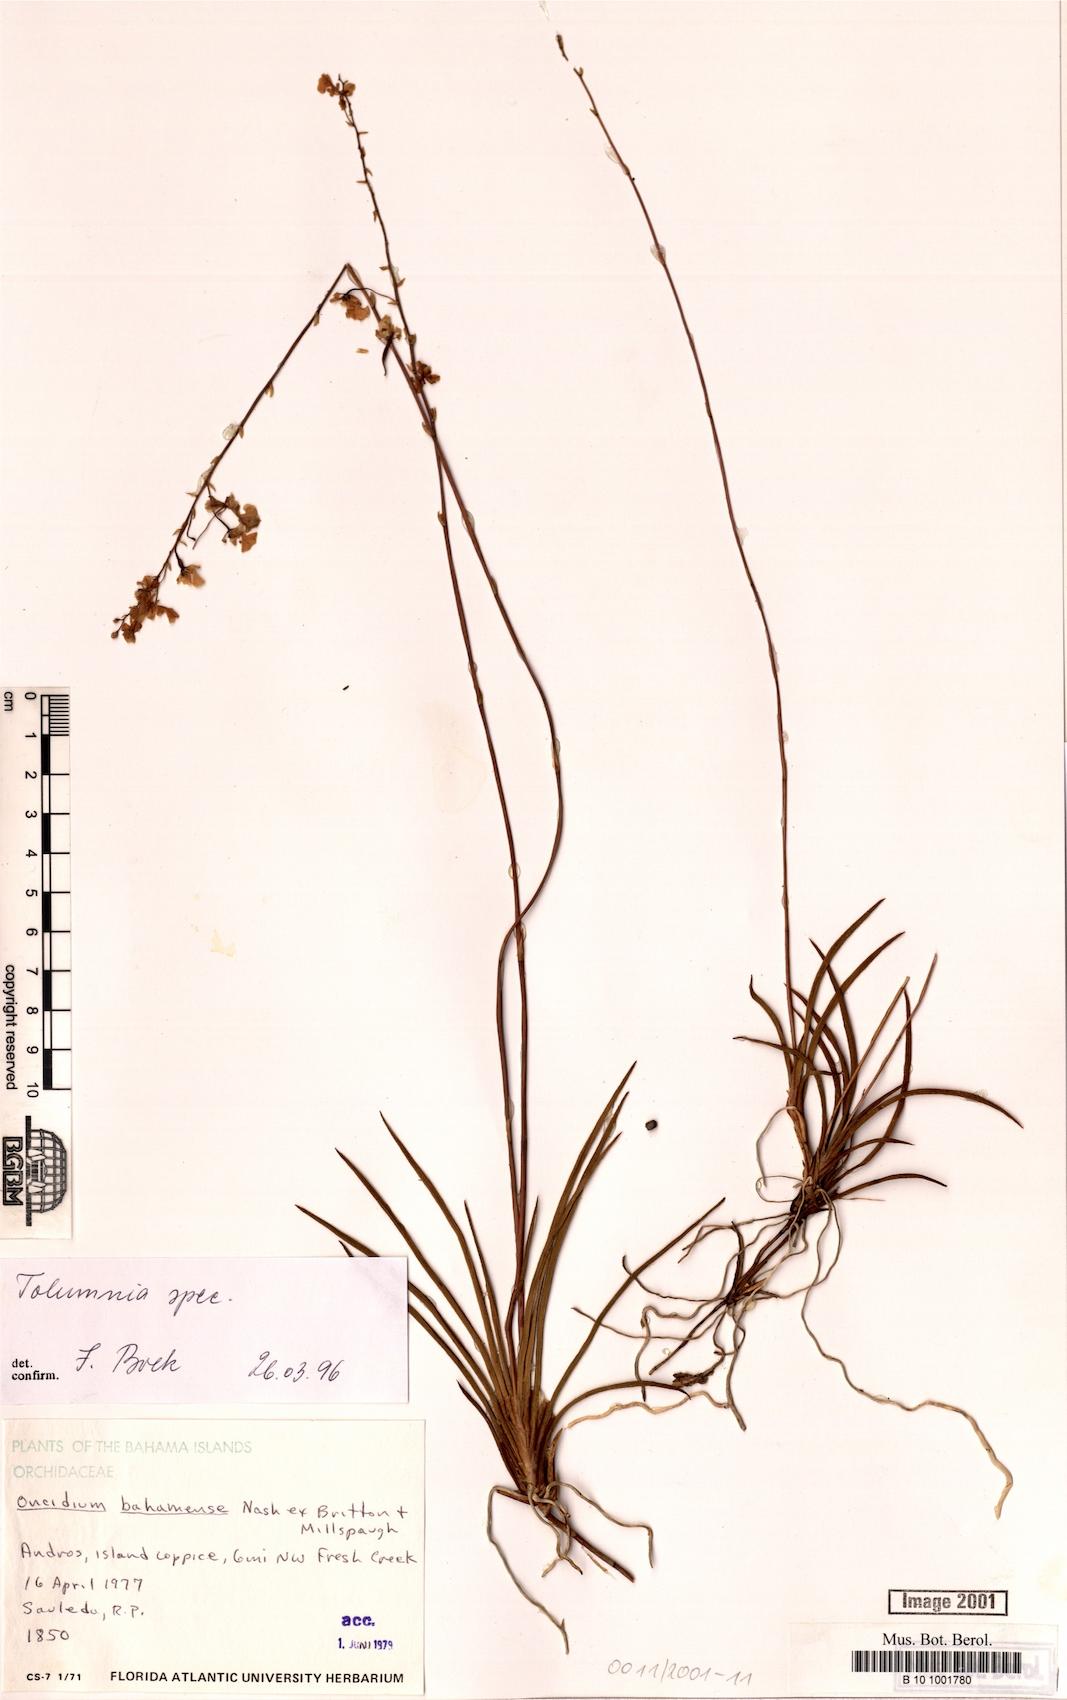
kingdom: Plantae
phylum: Tracheophyta
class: Liliopsida
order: Asparagales
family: Orchidaceae
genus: Tolumnia
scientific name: Tolumnia
